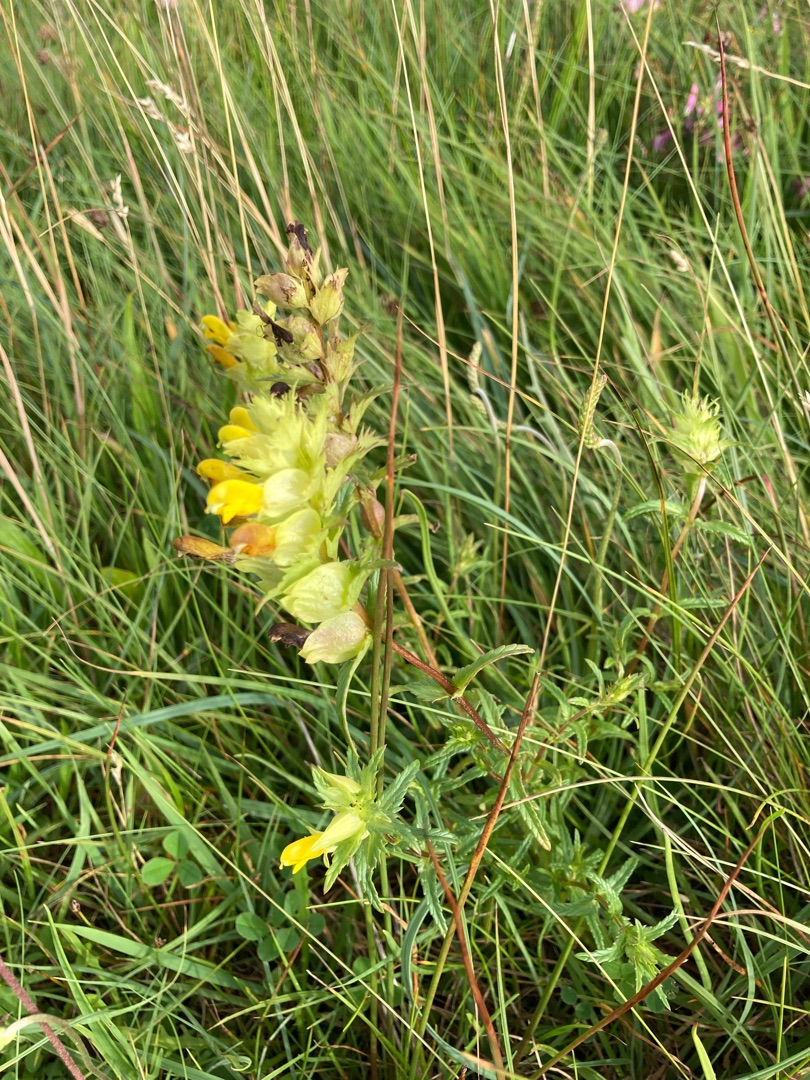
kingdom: Plantae
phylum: Tracheophyta
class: Magnoliopsida
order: Lamiales
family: Orobanchaceae
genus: Rhinanthus
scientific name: Rhinanthus
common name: Stor skjaller
